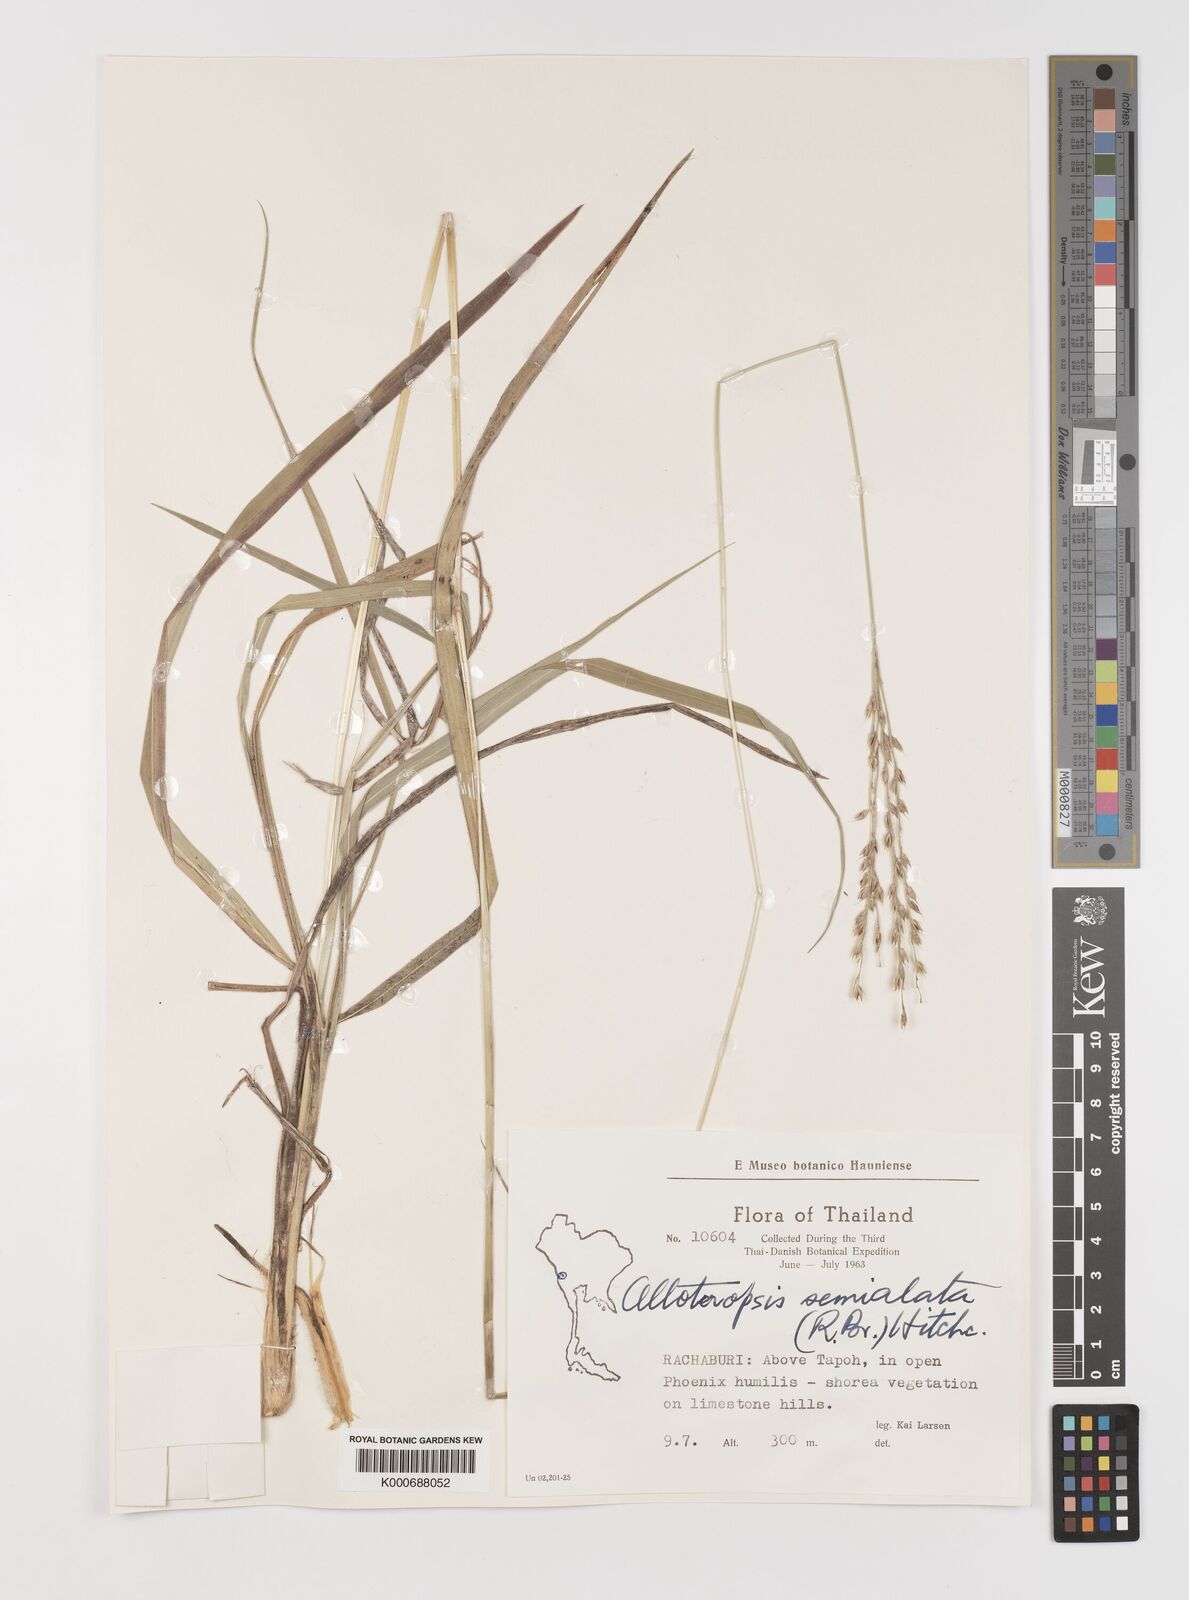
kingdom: Plantae
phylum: Tracheophyta
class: Liliopsida
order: Poales
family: Poaceae
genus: Alloteropsis
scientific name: Alloteropsis semialata
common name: Cockatoo grass
